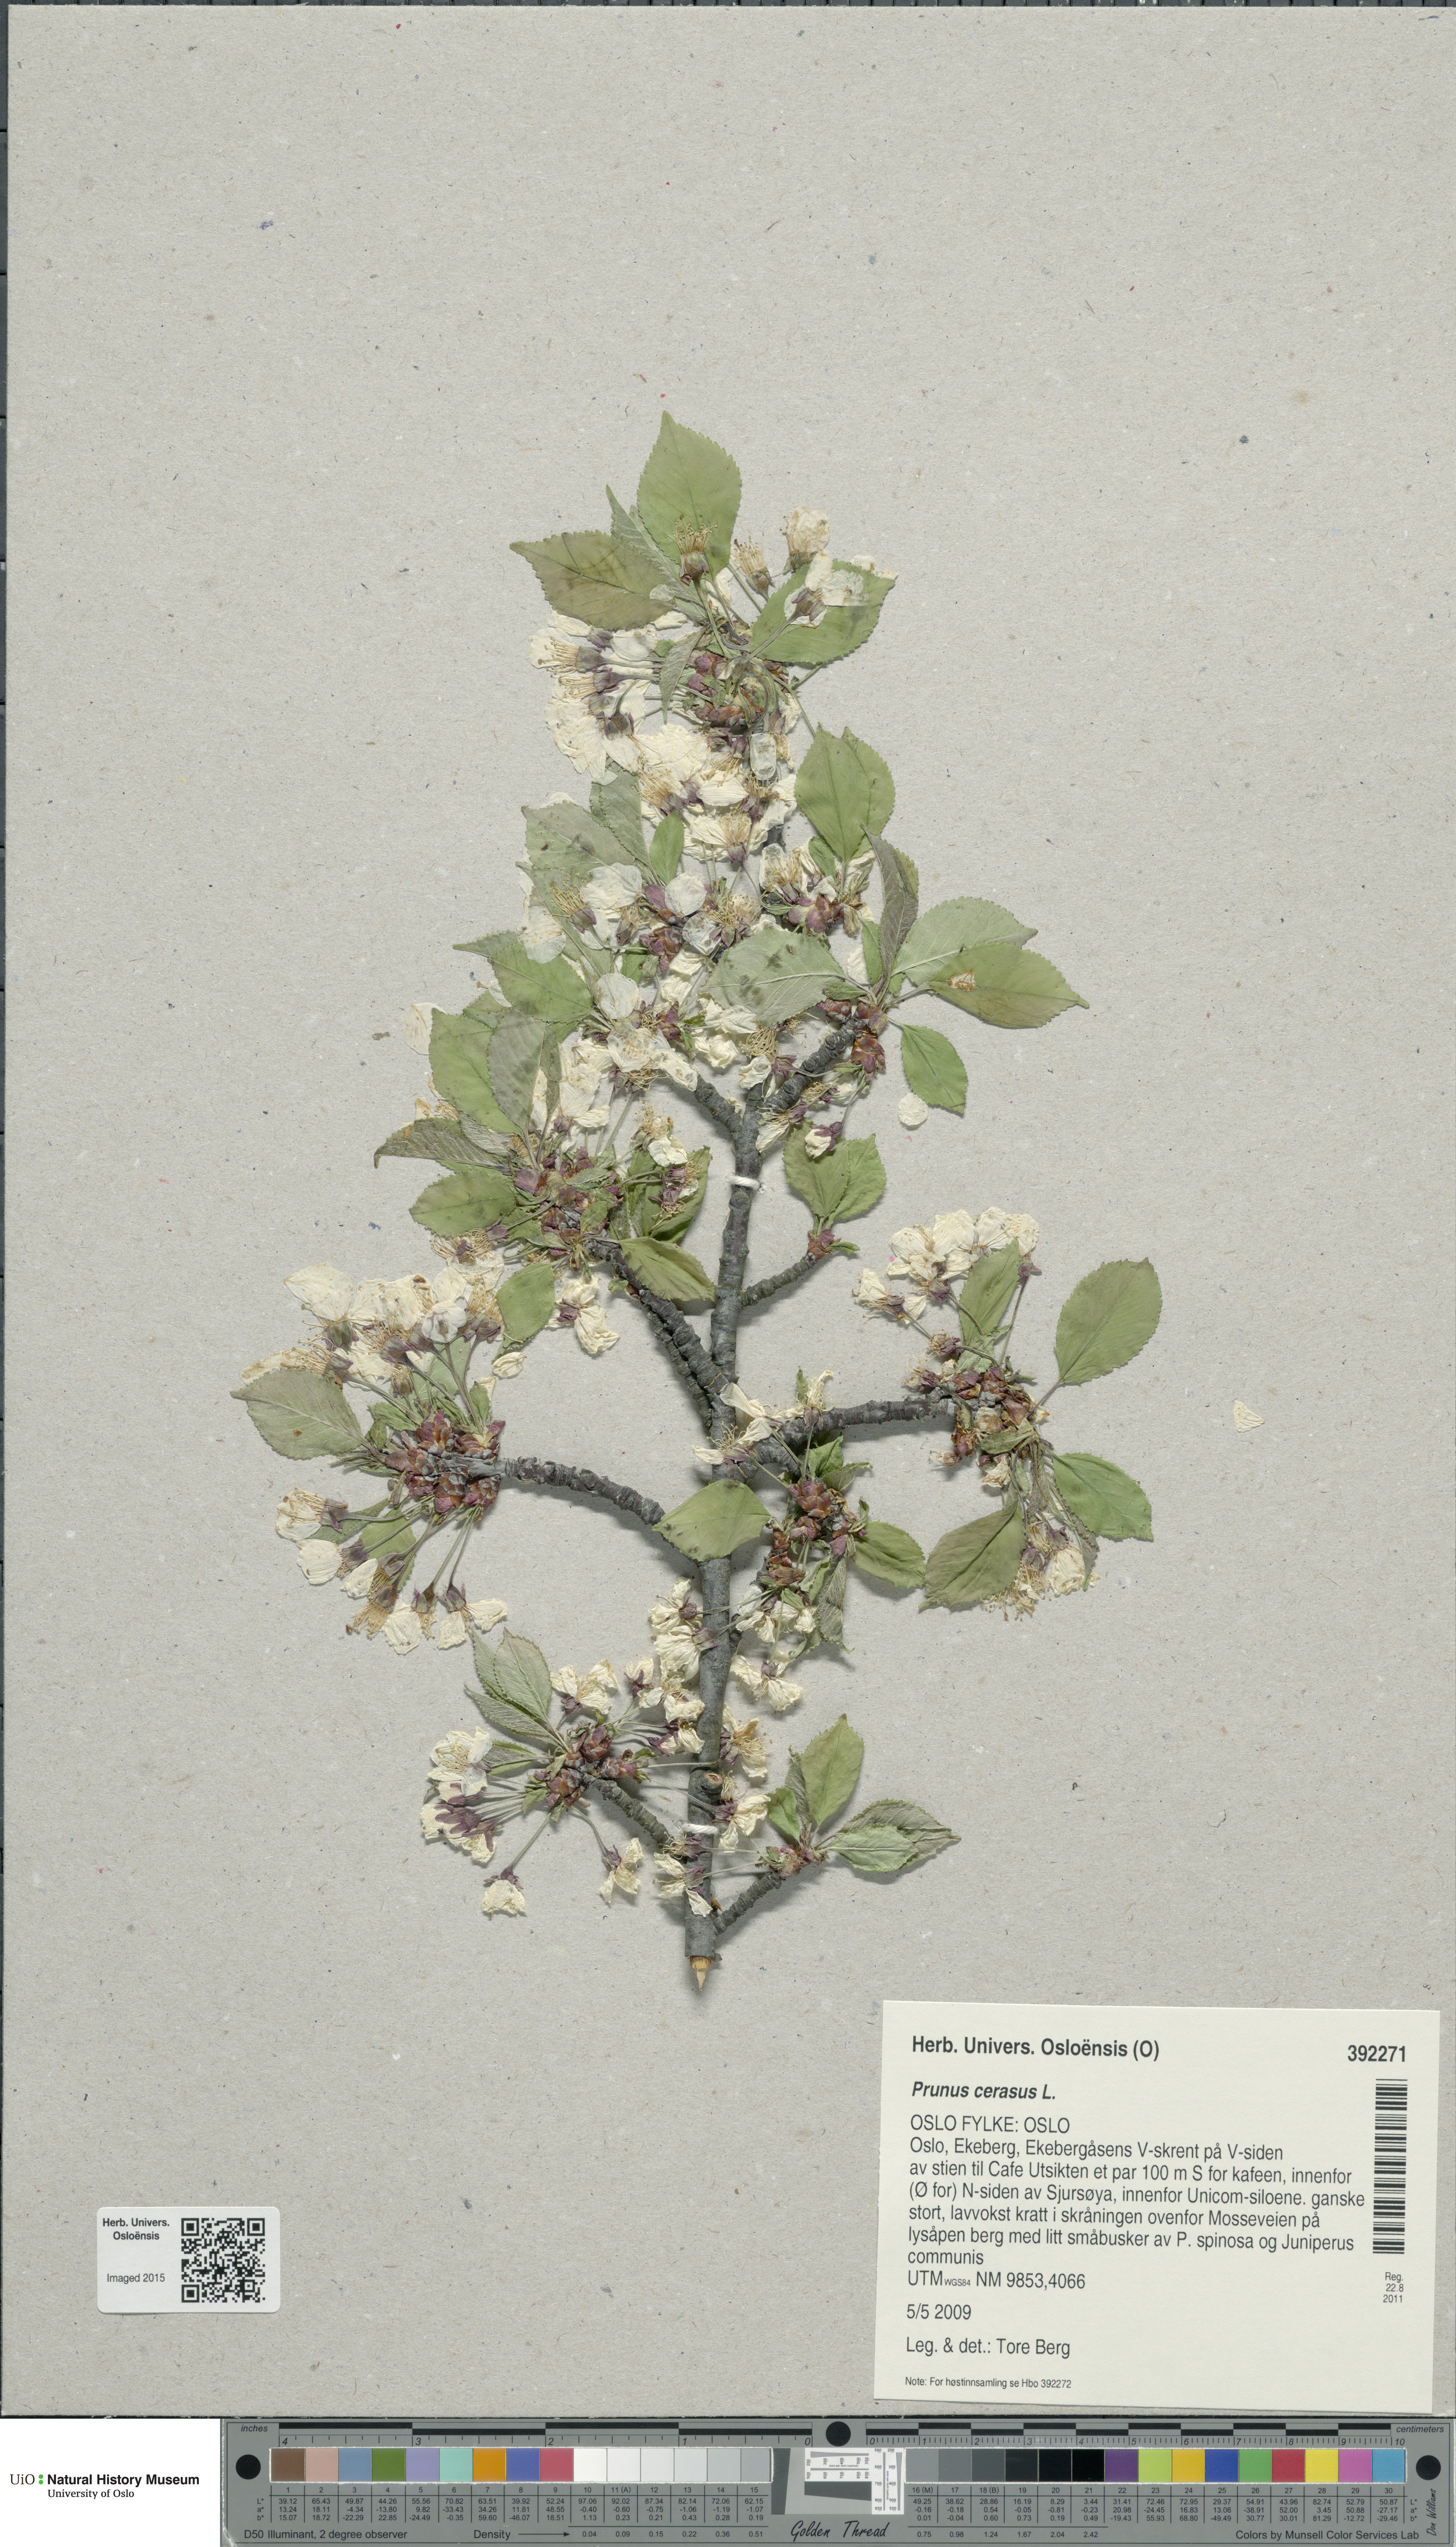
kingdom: Plantae
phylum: Tracheophyta
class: Magnoliopsida
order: Rosales
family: Rosaceae
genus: Prunus
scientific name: Prunus cerasus
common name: Morello cherry
